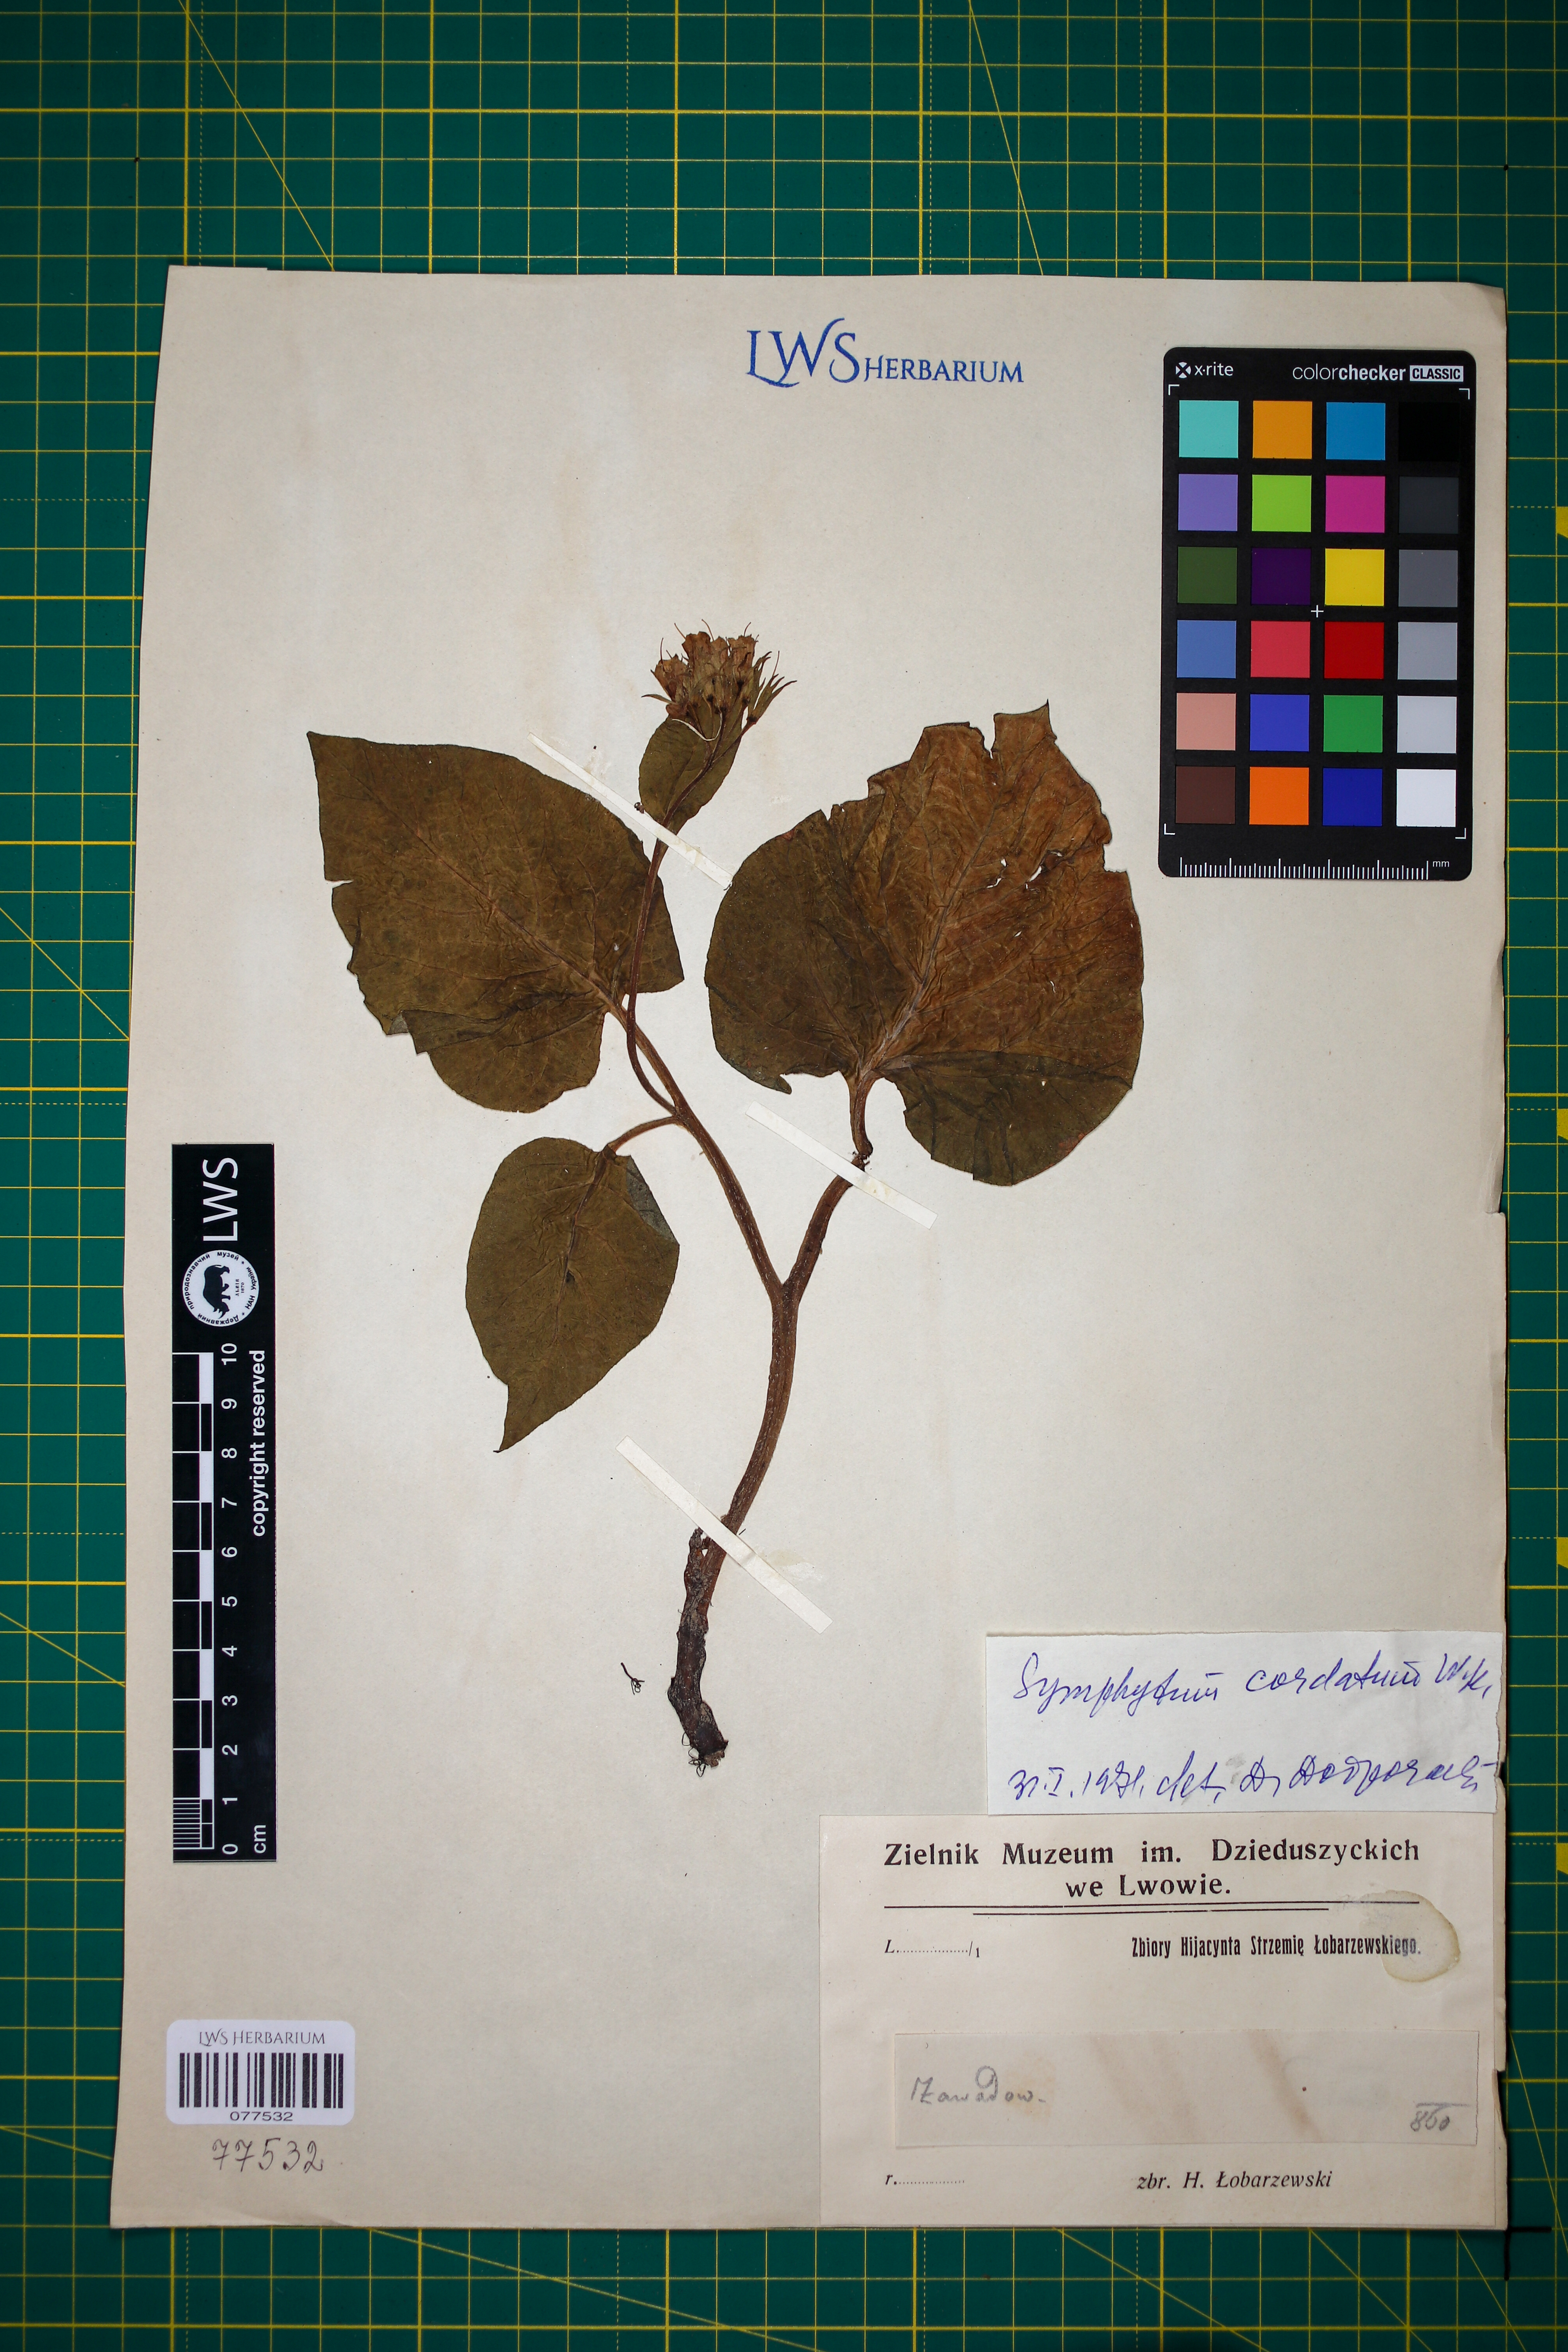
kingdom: Plantae
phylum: Tracheophyta
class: Magnoliopsida
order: Boraginales
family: Boraginaceae
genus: Symphytum
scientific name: Symphytum cordatum
